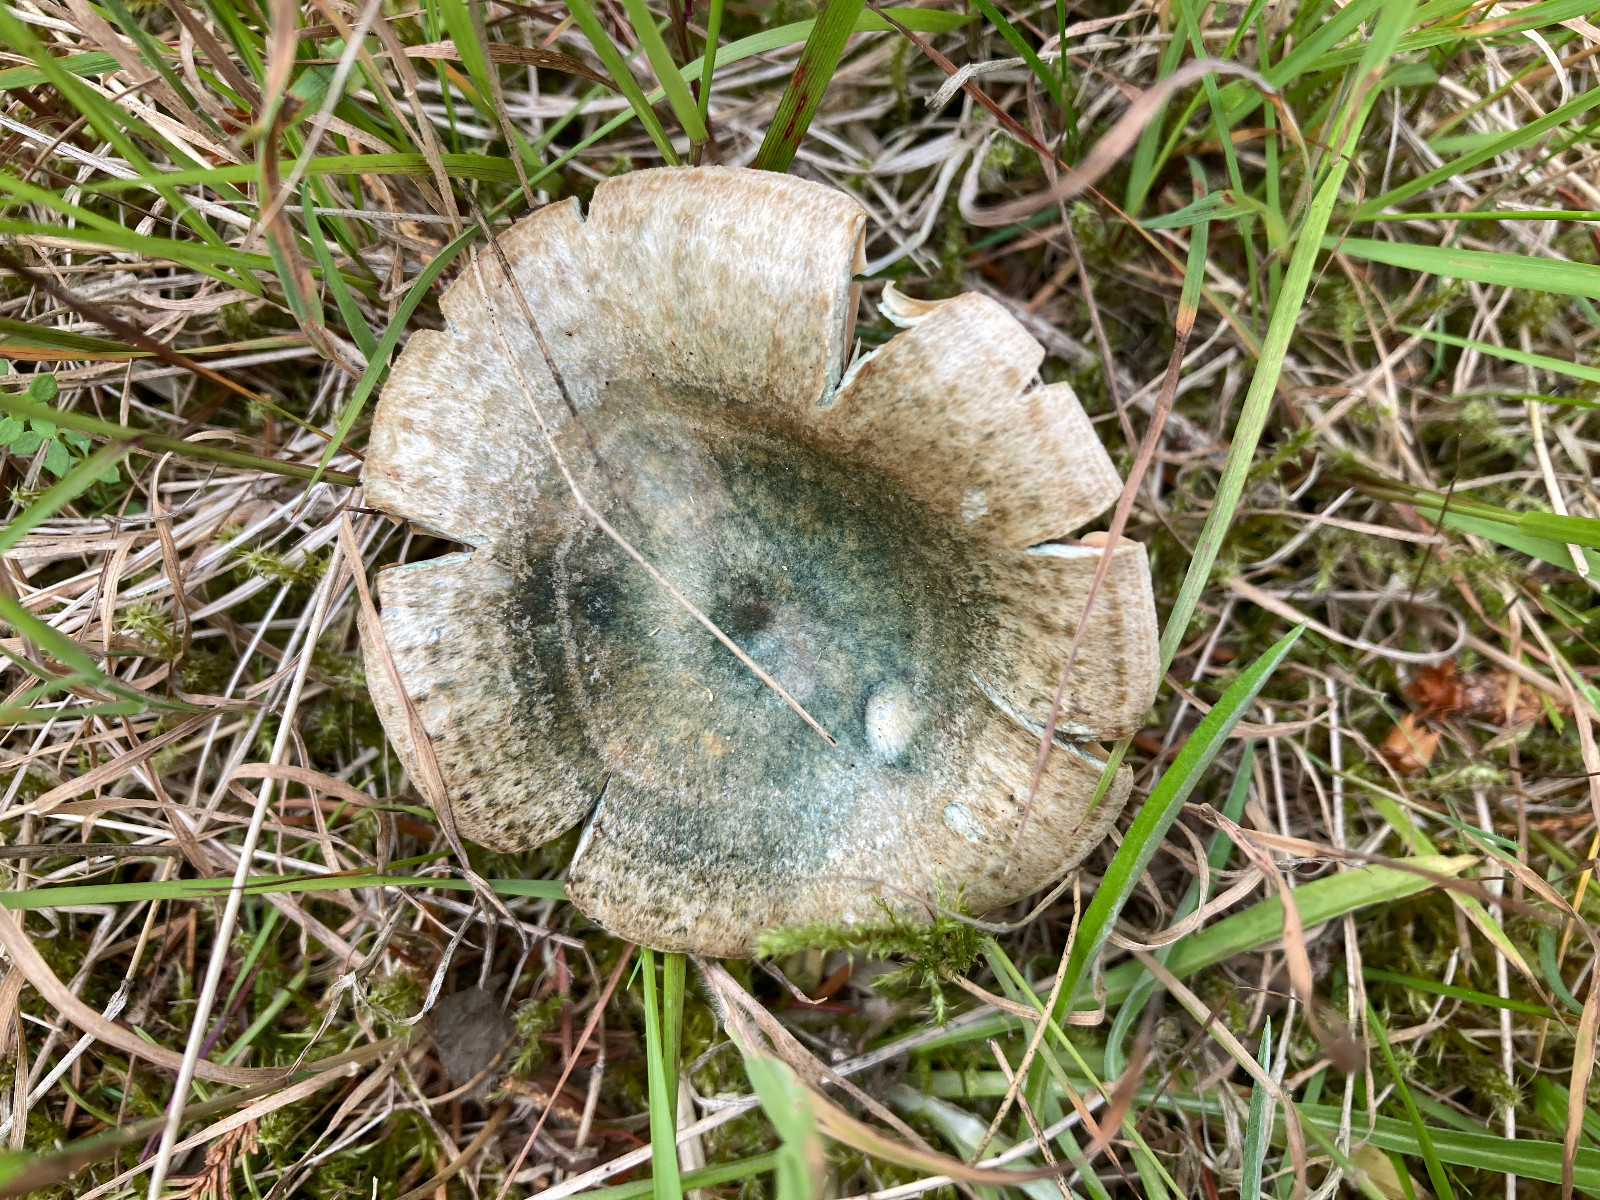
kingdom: Fungi
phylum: Basidiomycota
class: Agaricomycetes
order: Russulales
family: Russulaceae
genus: Lactarius
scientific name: Lactarius deterrimus
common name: gran-mælkehat
